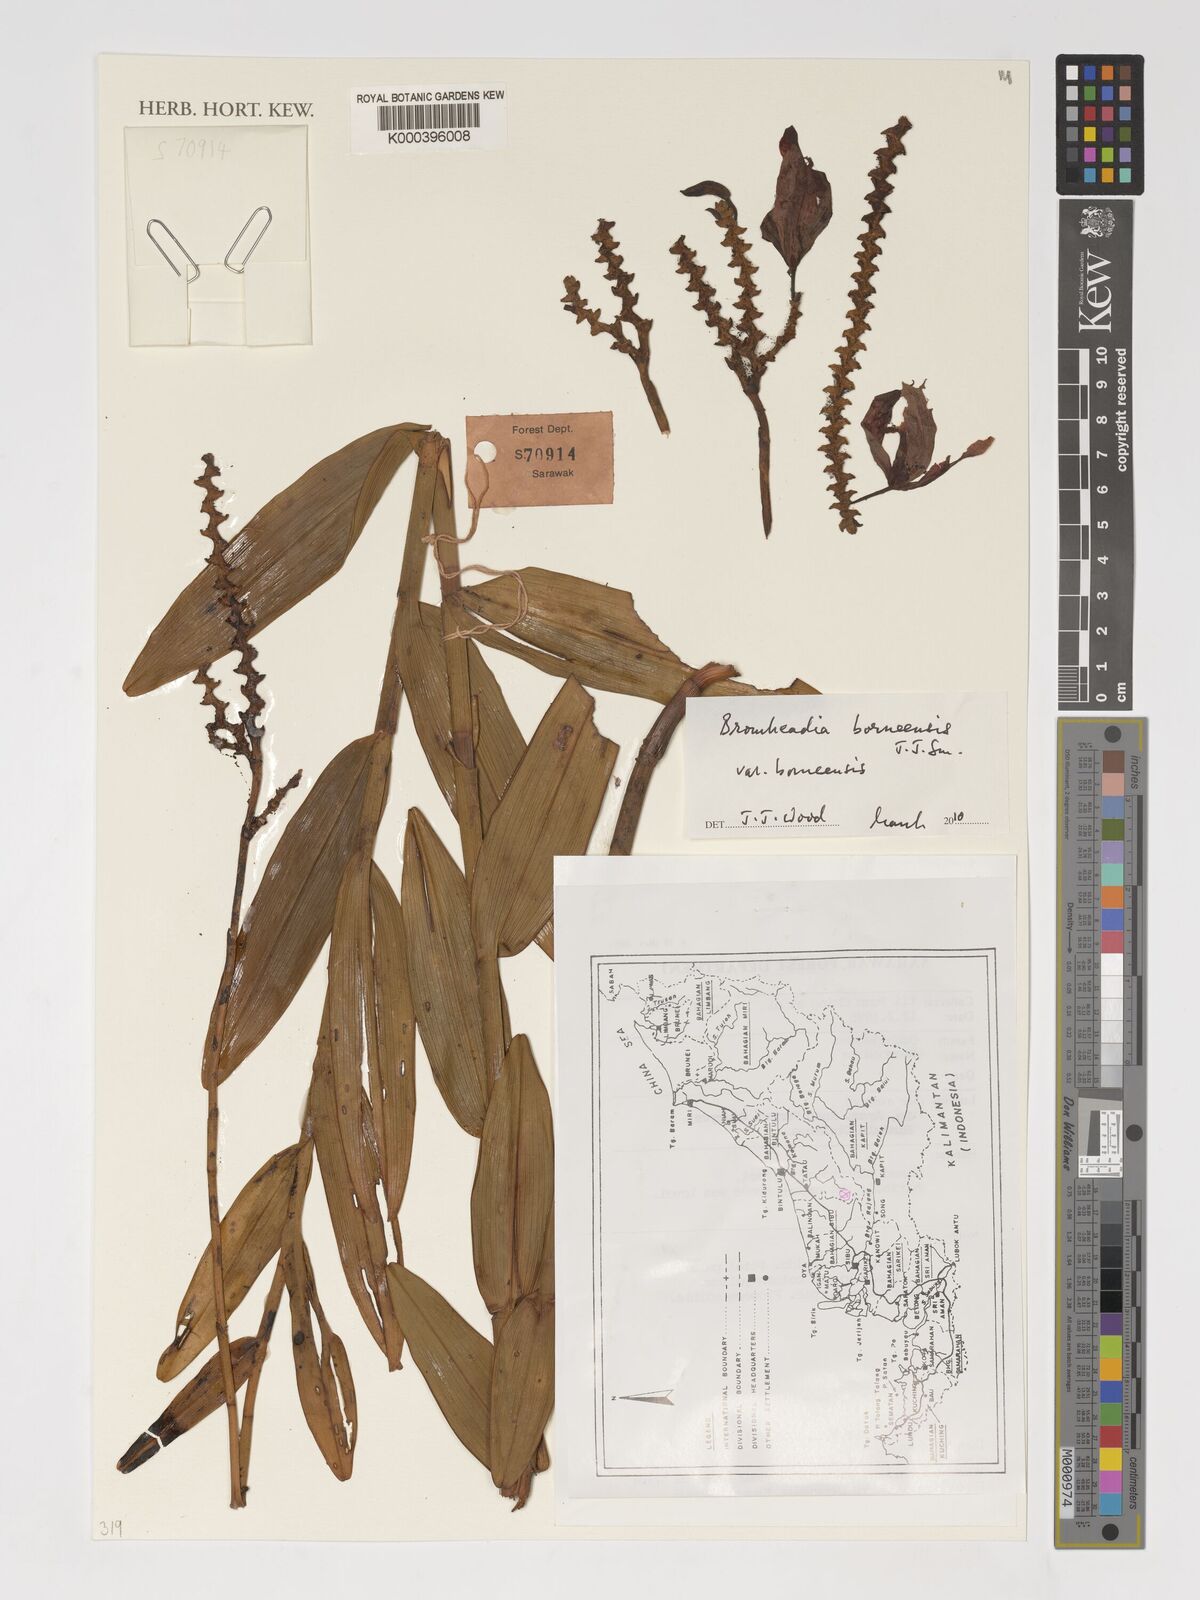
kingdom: Plantae
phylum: Tracheophyta
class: Liliopsida
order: Asparagales
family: Orchidaceae
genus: Bromheadia
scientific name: Bromheadia borneensis
